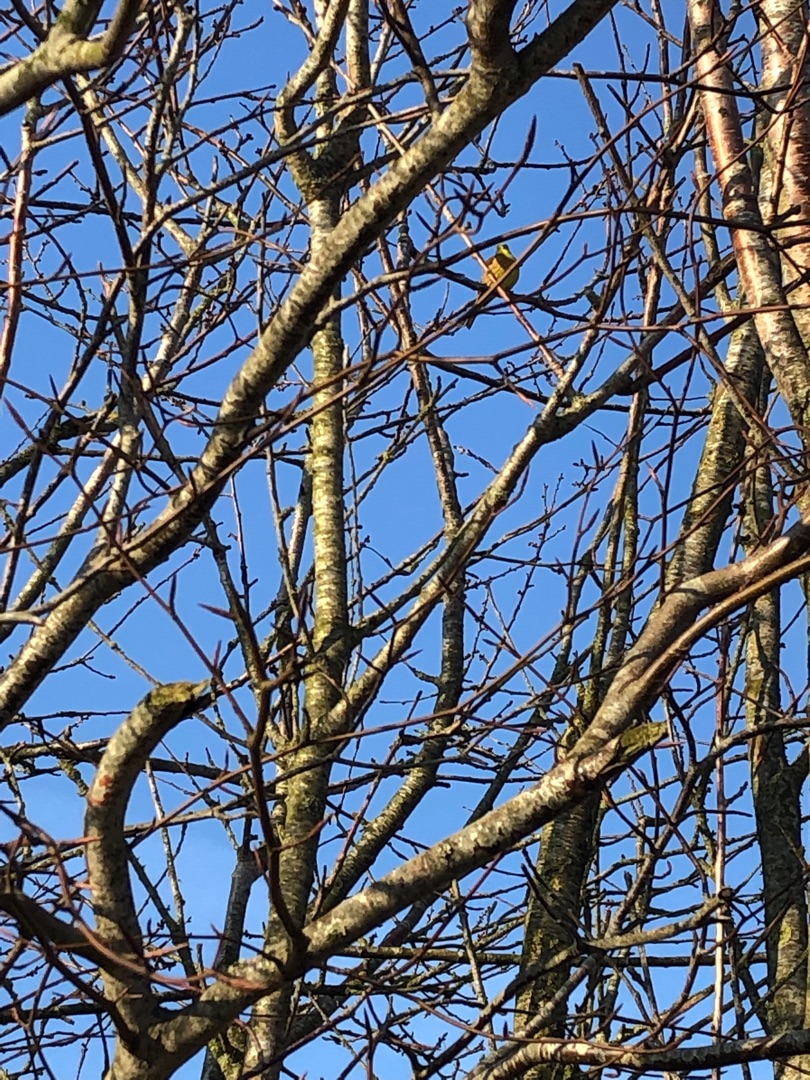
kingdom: Animalia
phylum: Chordata
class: Aves
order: Passeriformes
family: Emberizidae
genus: Emberiza
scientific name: Emberiza citrinella
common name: Gulspurv
